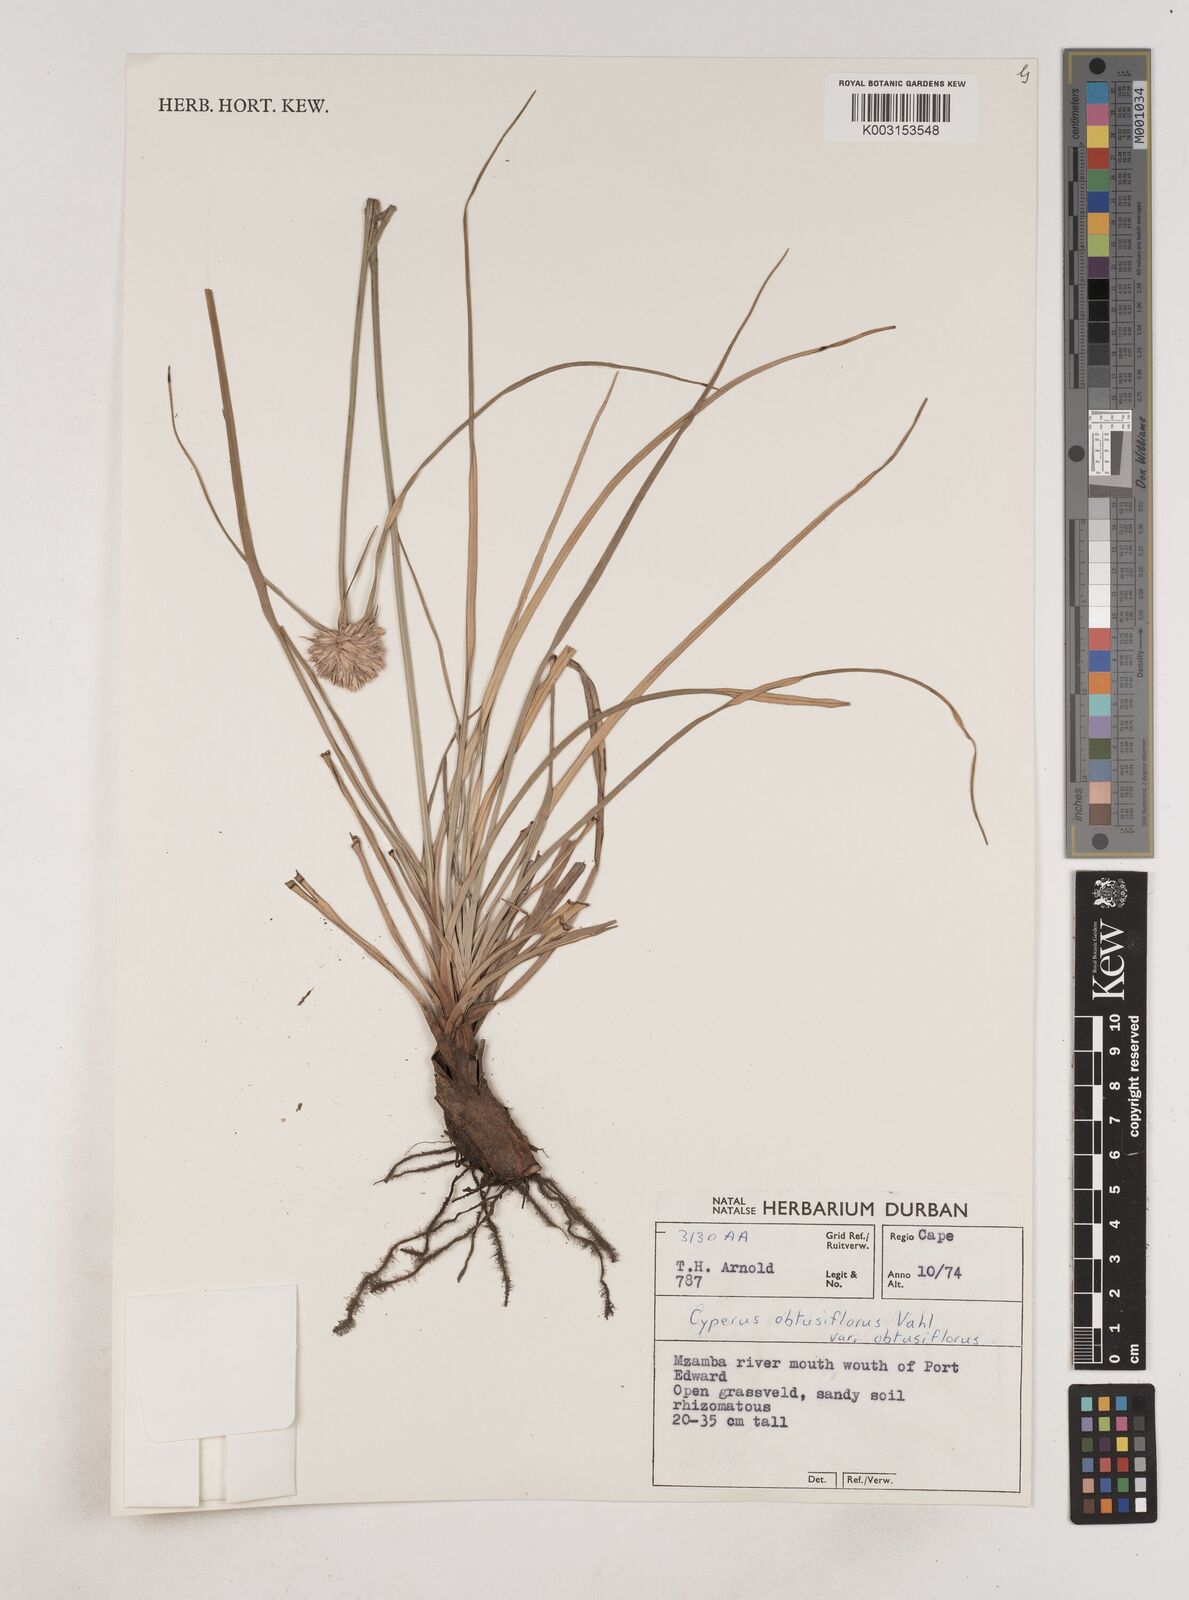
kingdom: Plantae
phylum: Tracheophyta
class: Liliopsida
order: Poales
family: Cyperaceae
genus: Cyperus
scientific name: Cyperus niveus
